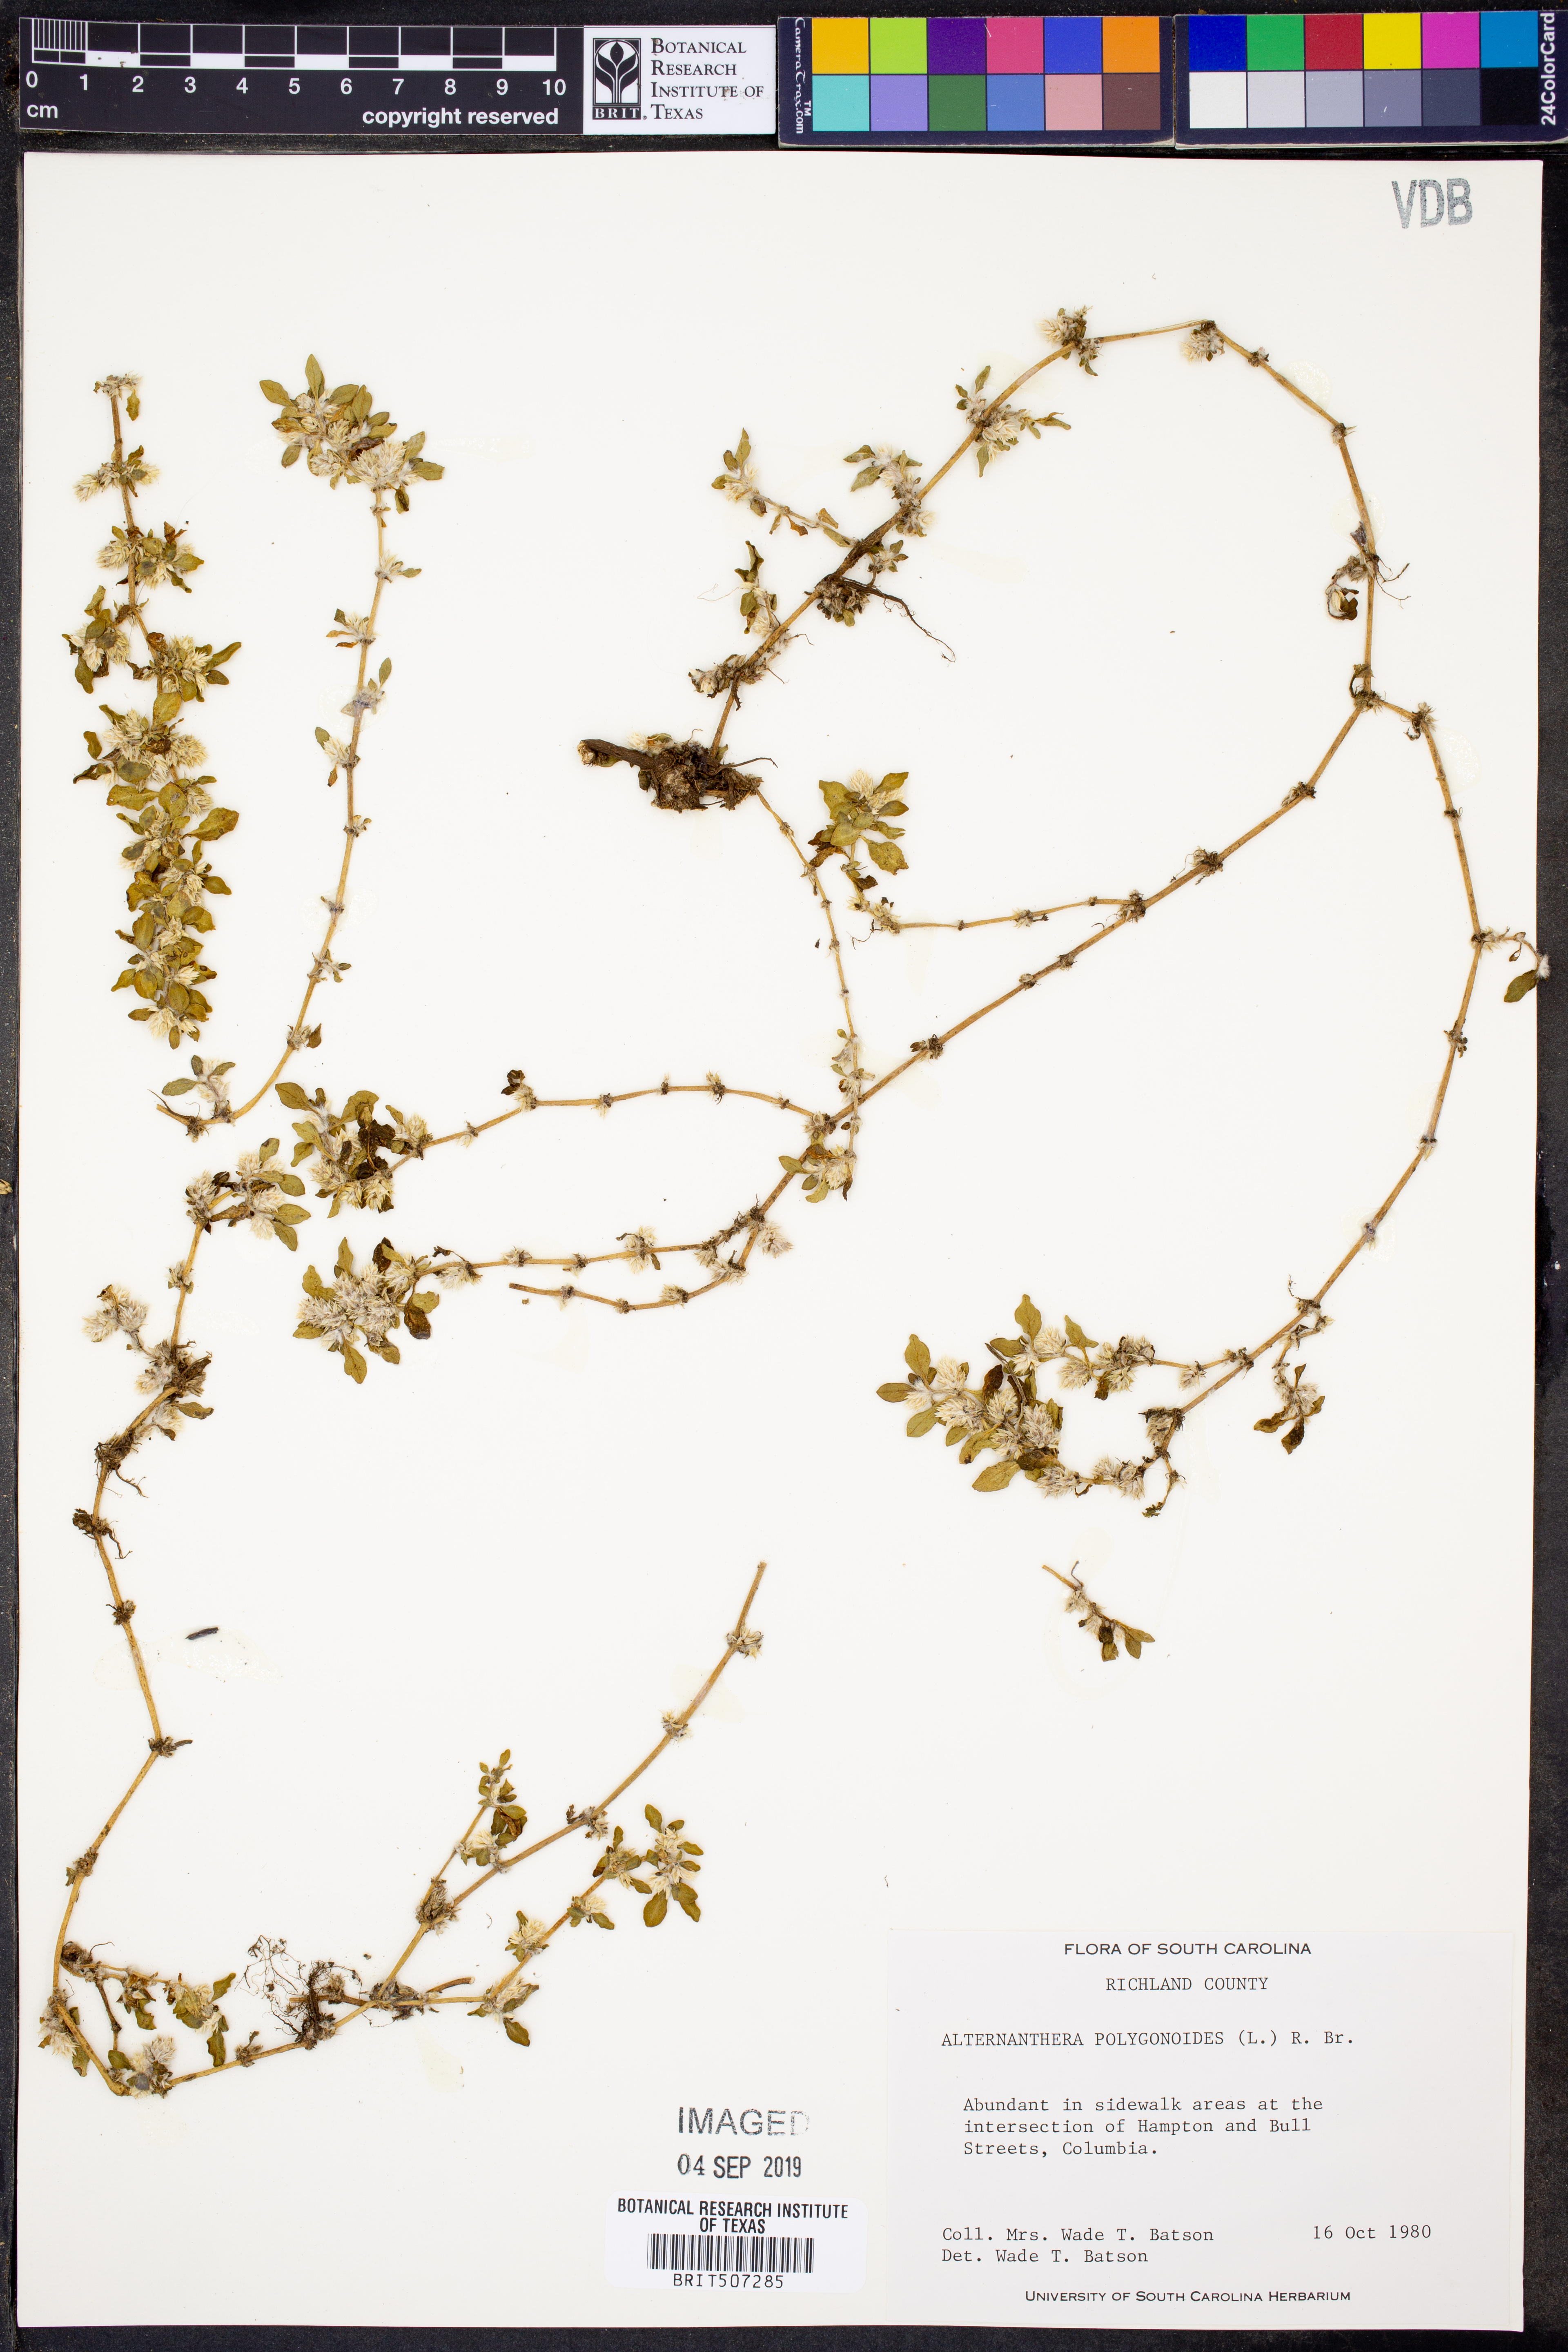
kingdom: Plantae
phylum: Tracheophyta
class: Magnoliopsida
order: Caryophyllales
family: Amaranthaceae
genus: Alternanthera
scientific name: Alternanthera
